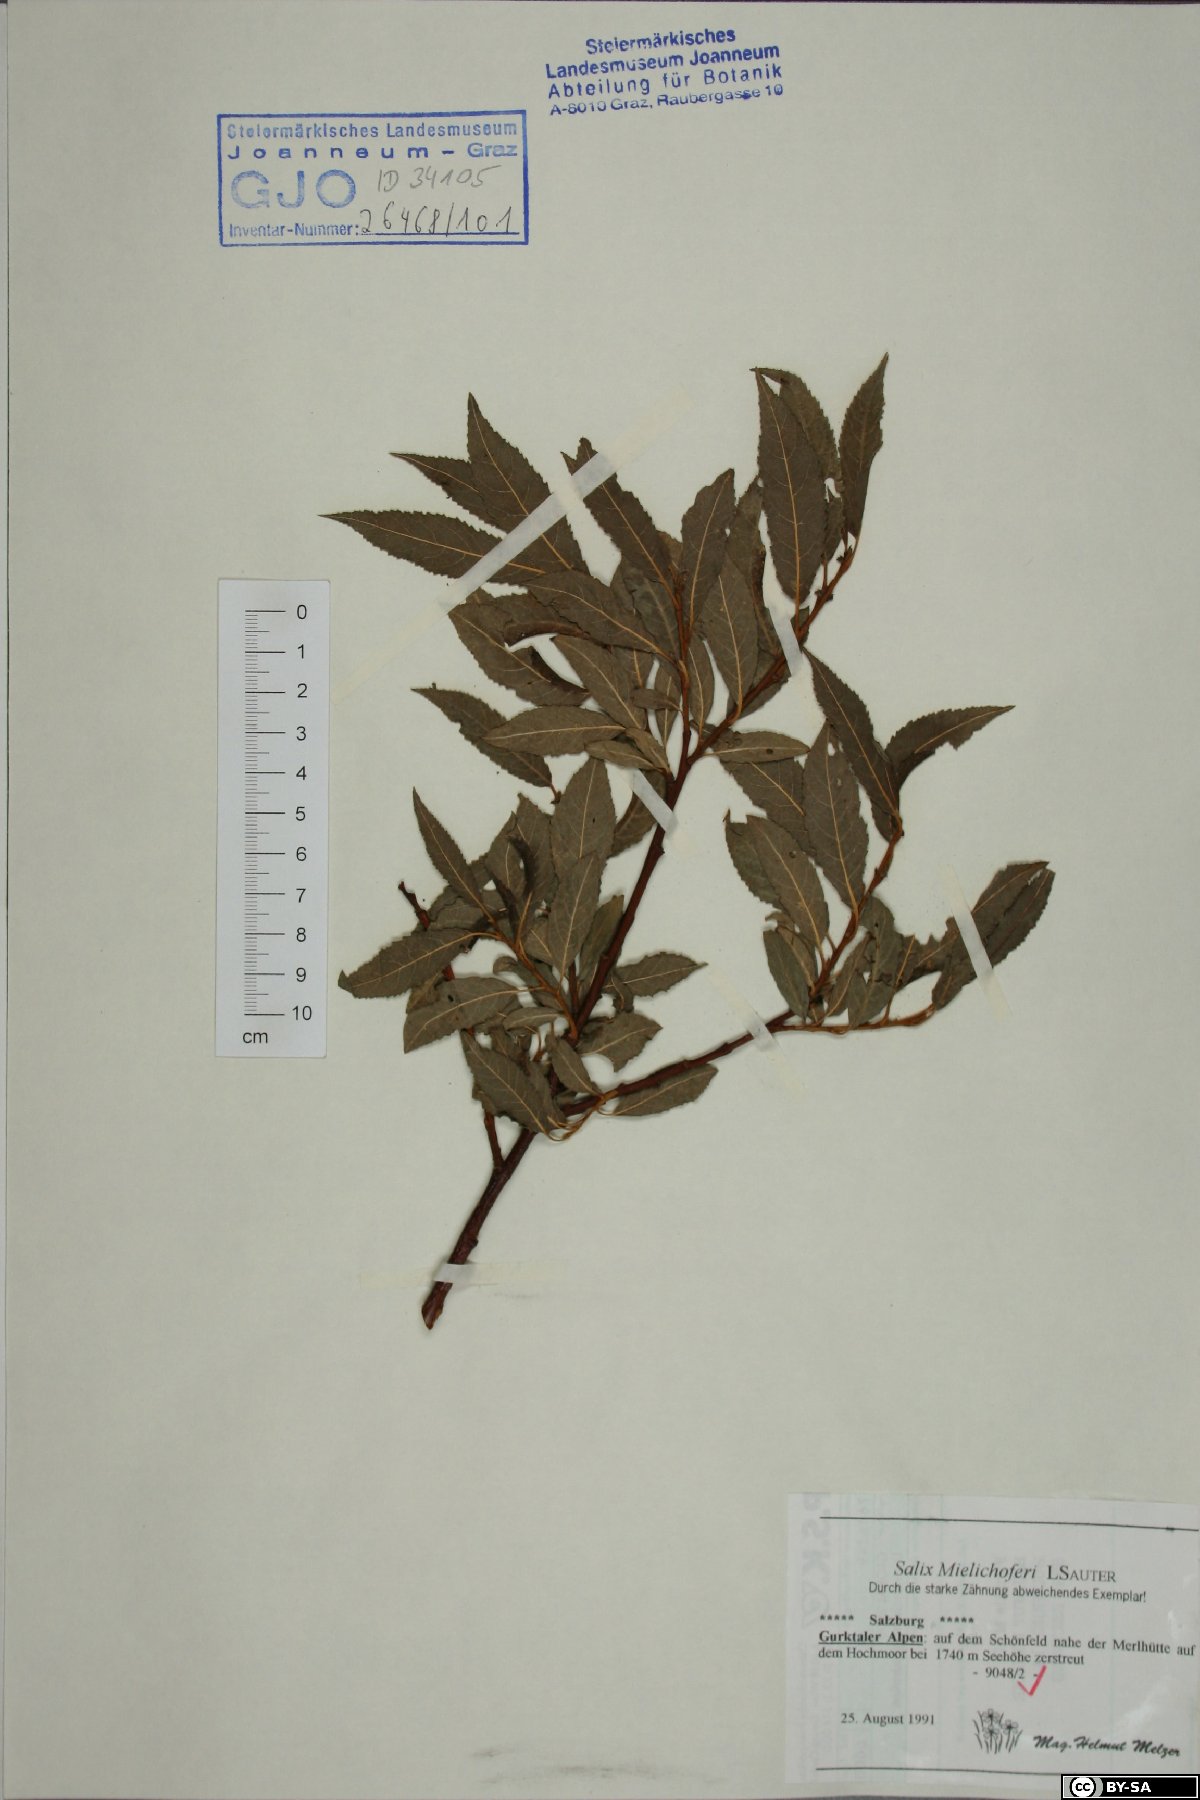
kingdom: Plantae
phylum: Tracheophyta
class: Magnoliopsida
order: Malpighiales
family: Salicaceae
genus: Salix
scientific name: Salix mielichhoferi
